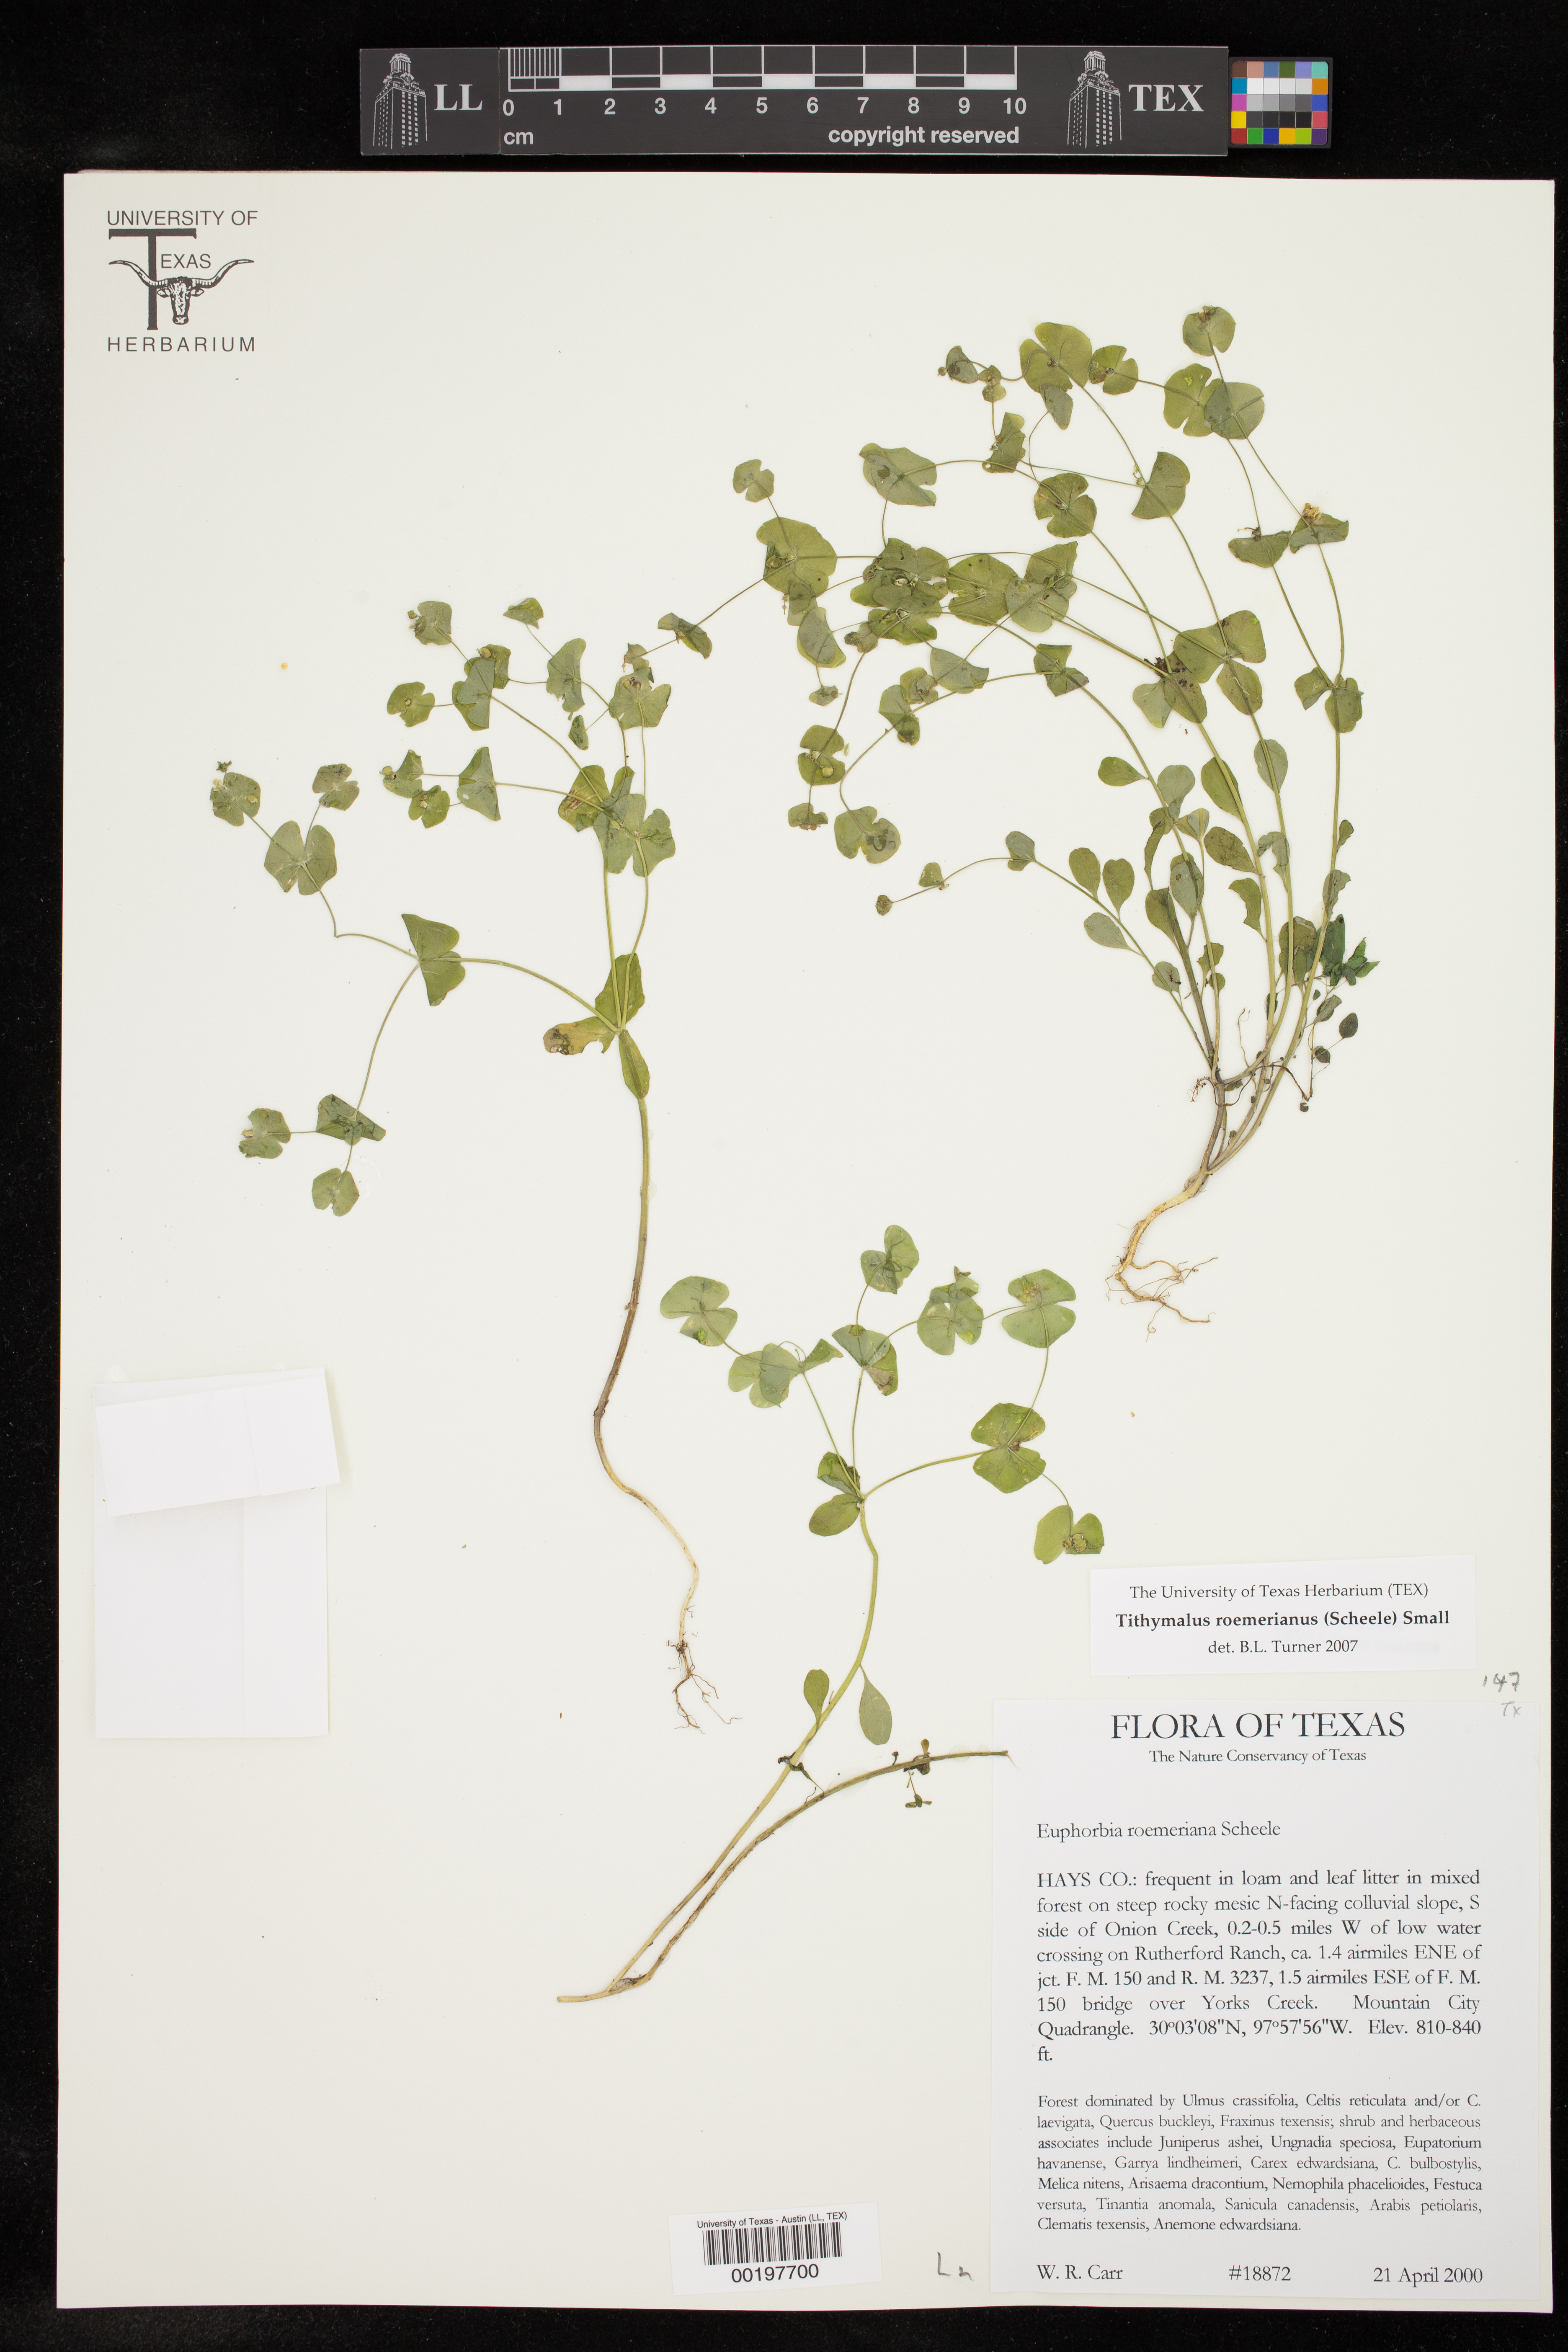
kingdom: Plantae
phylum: Tracheophyta
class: Magnoliopsida
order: Malpighiales
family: Euphorbiaceae
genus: Euphorbia
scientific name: Euphorbia roemeriana
